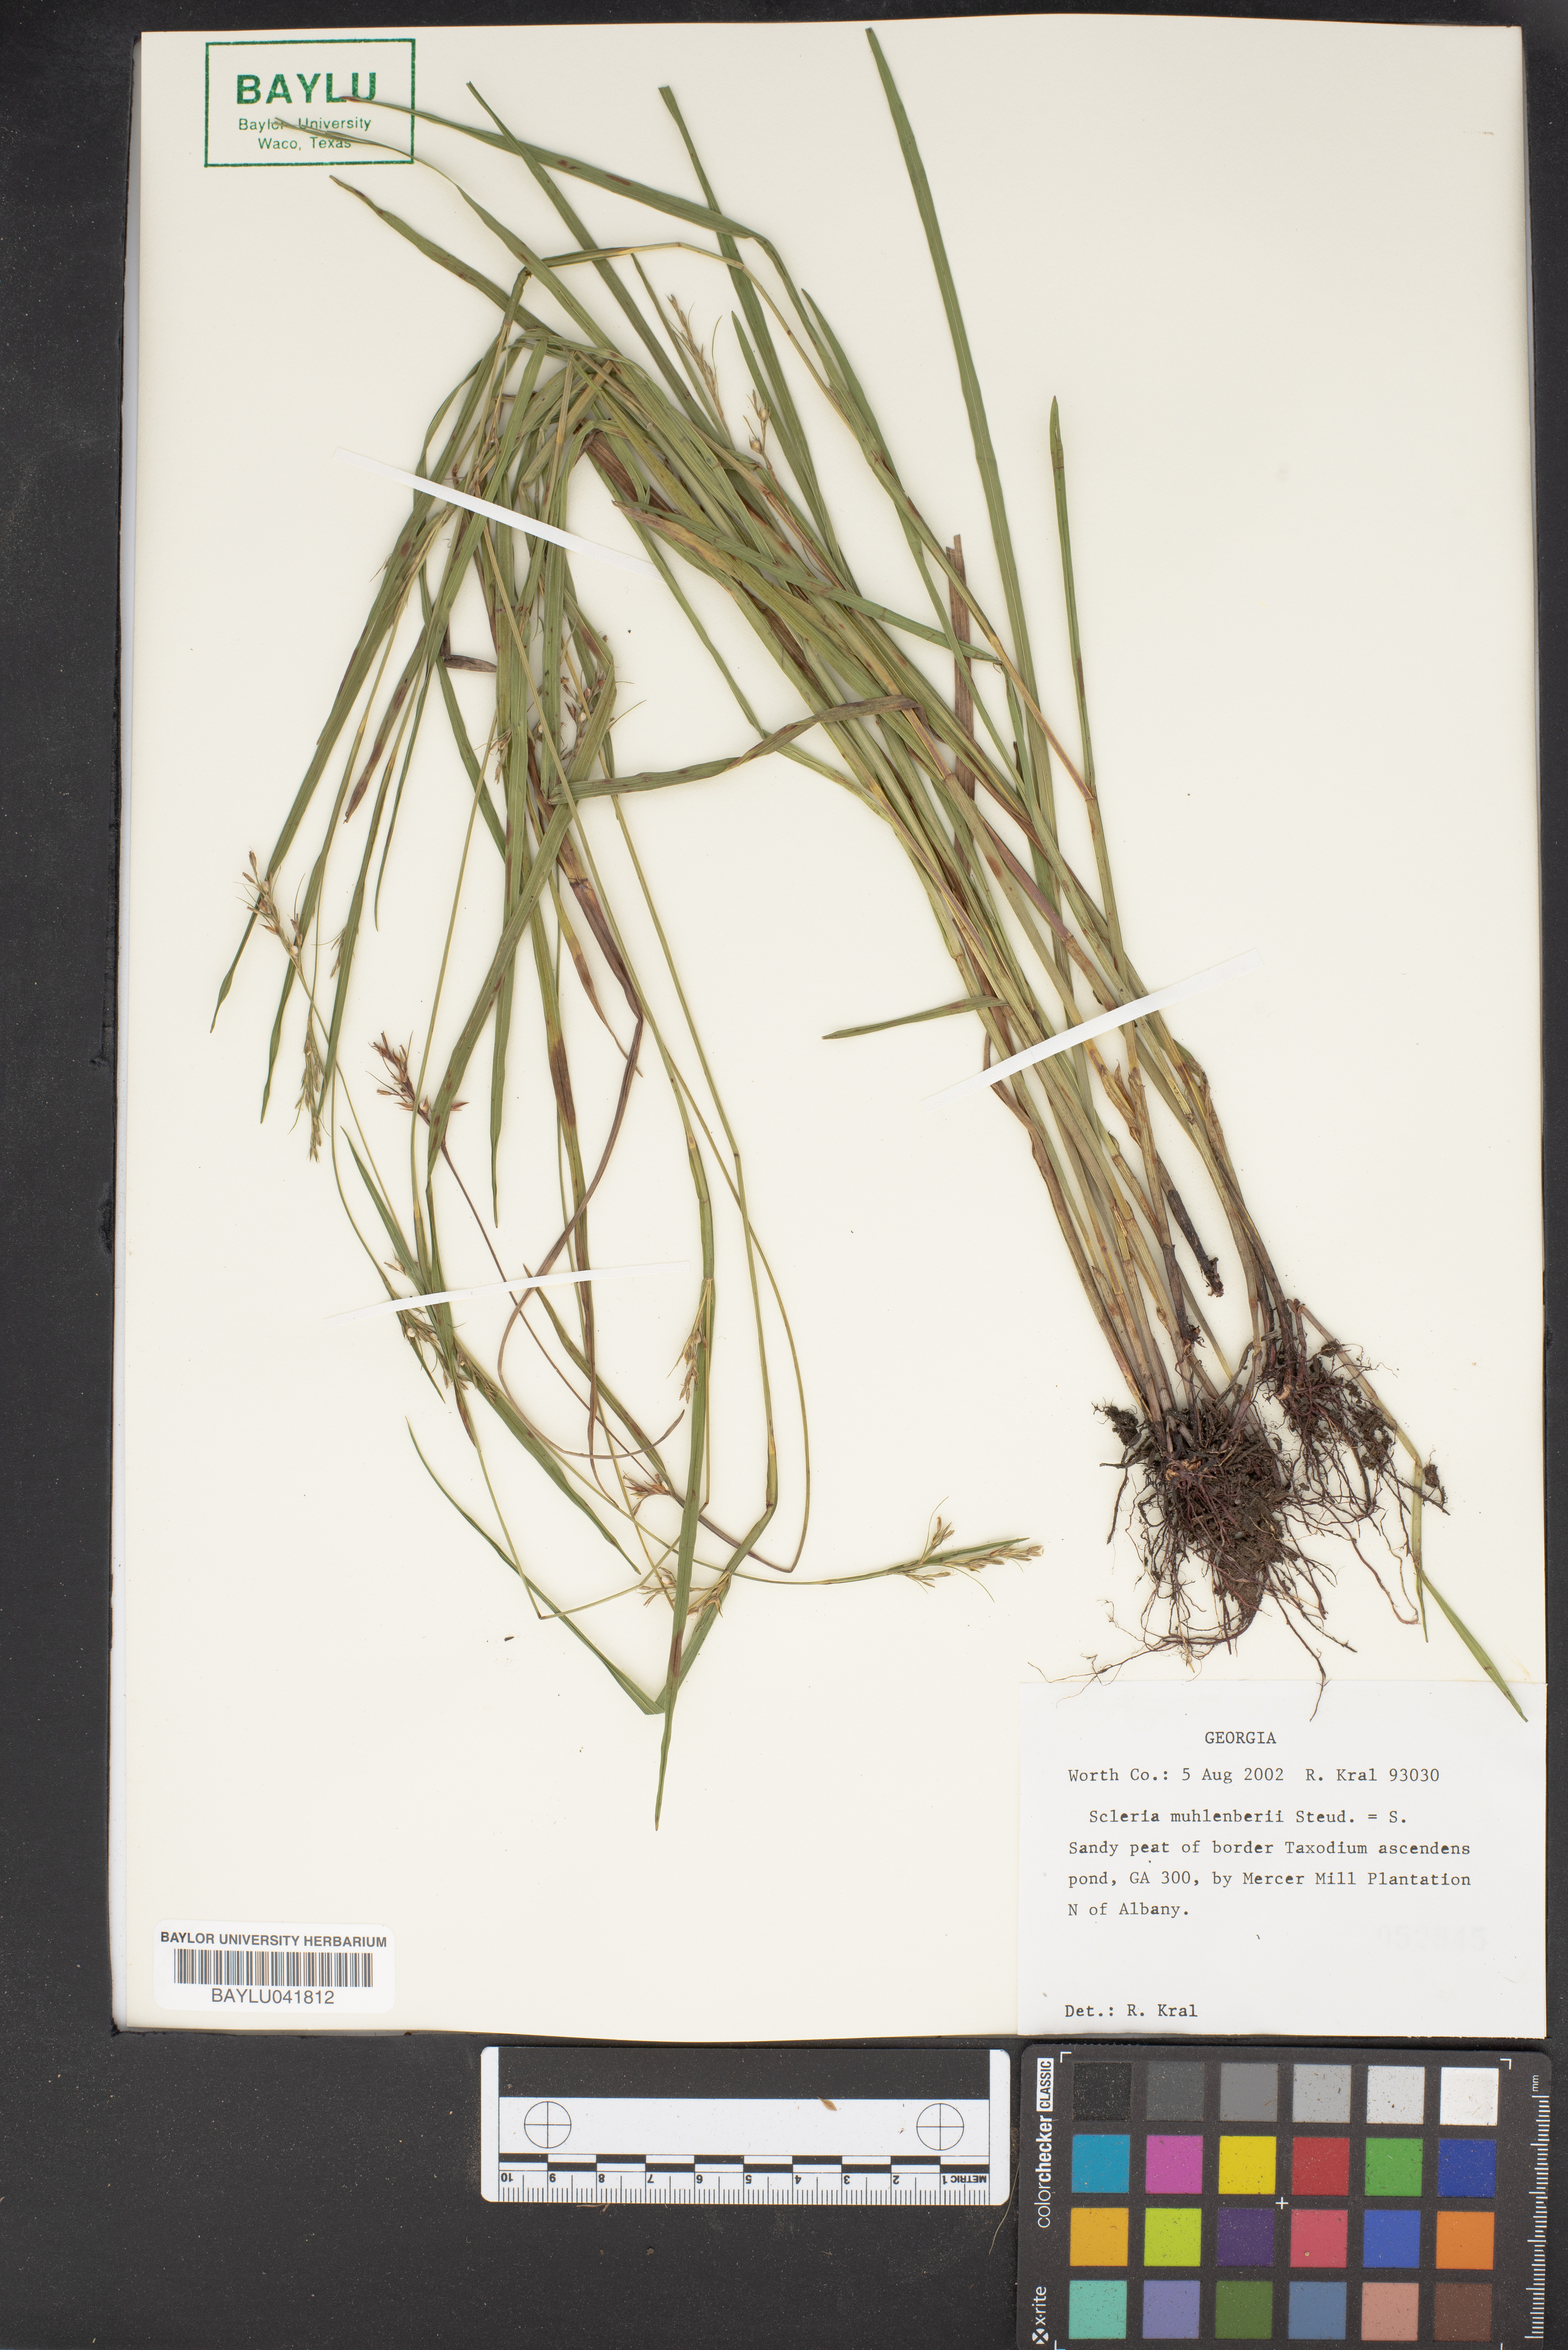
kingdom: Plantae
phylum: Tracheophyta
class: Liliopsida
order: Poales
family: Cyperaceae
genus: Scleria
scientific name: Scleria muehlenbergii
